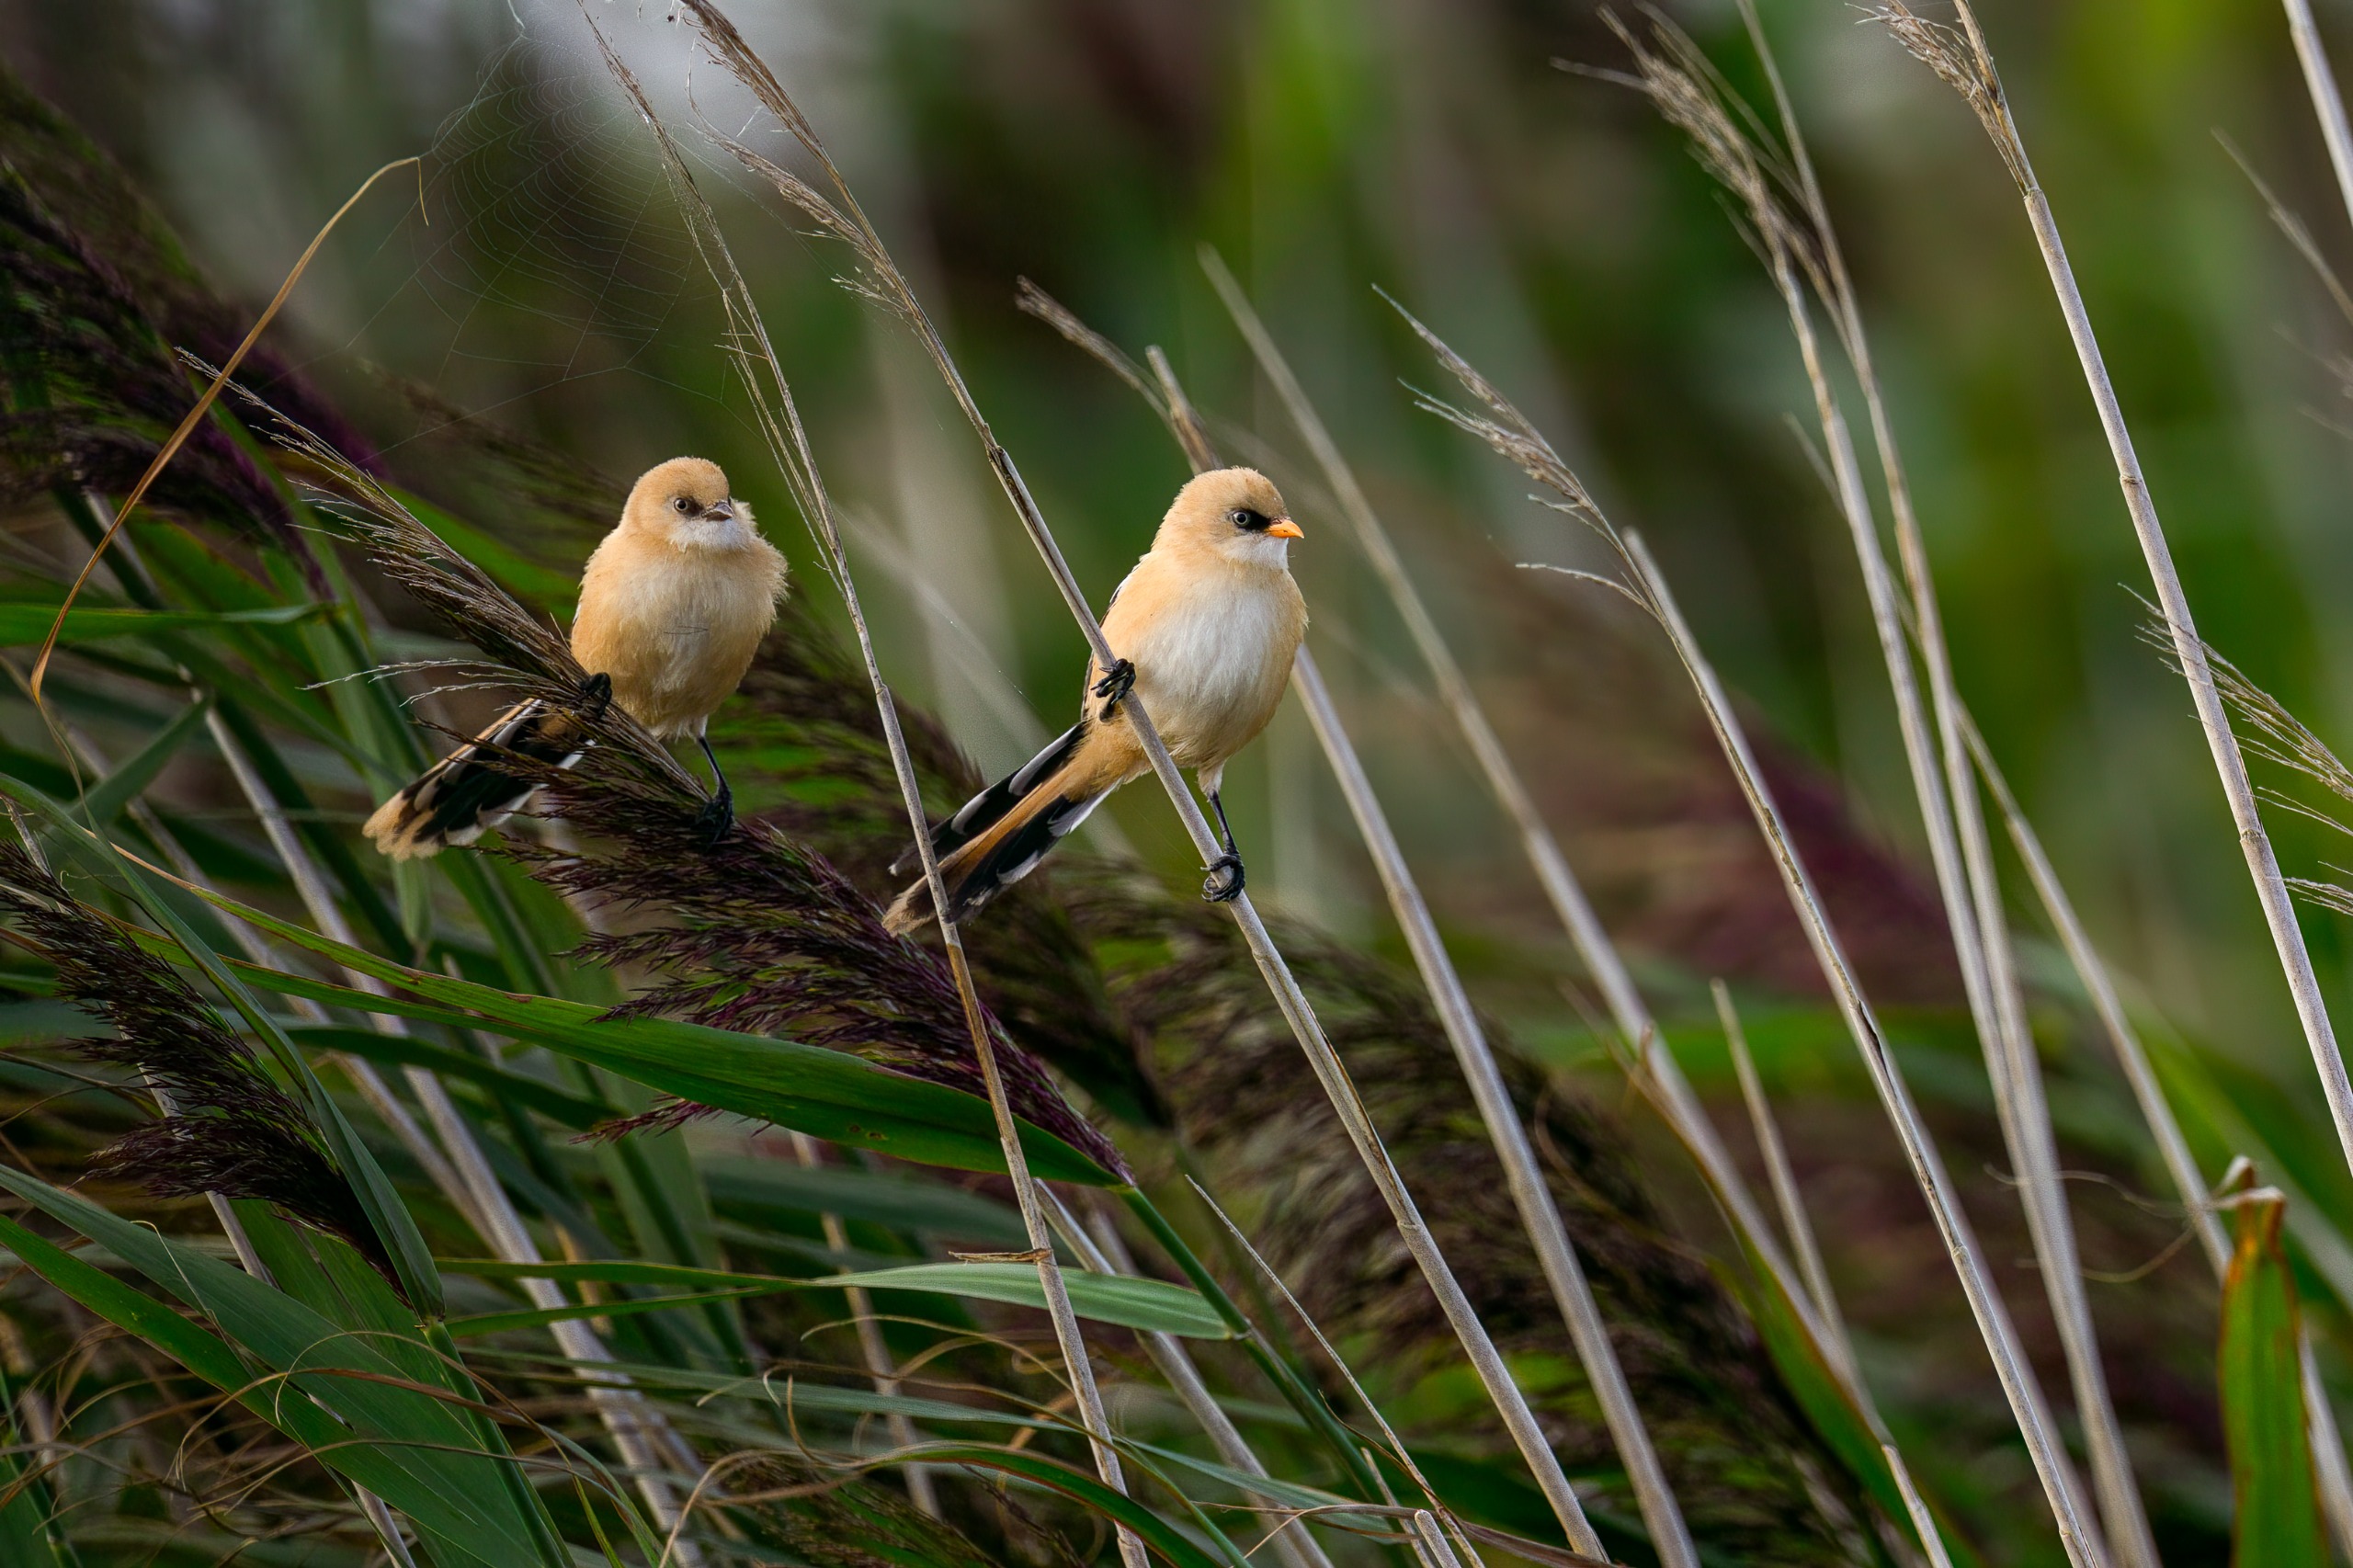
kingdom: Animalia
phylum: Chordata
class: Aves
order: Passeriformes
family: Panuridae
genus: Panurus
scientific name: Panurus biarmicus
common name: Skægmejse
